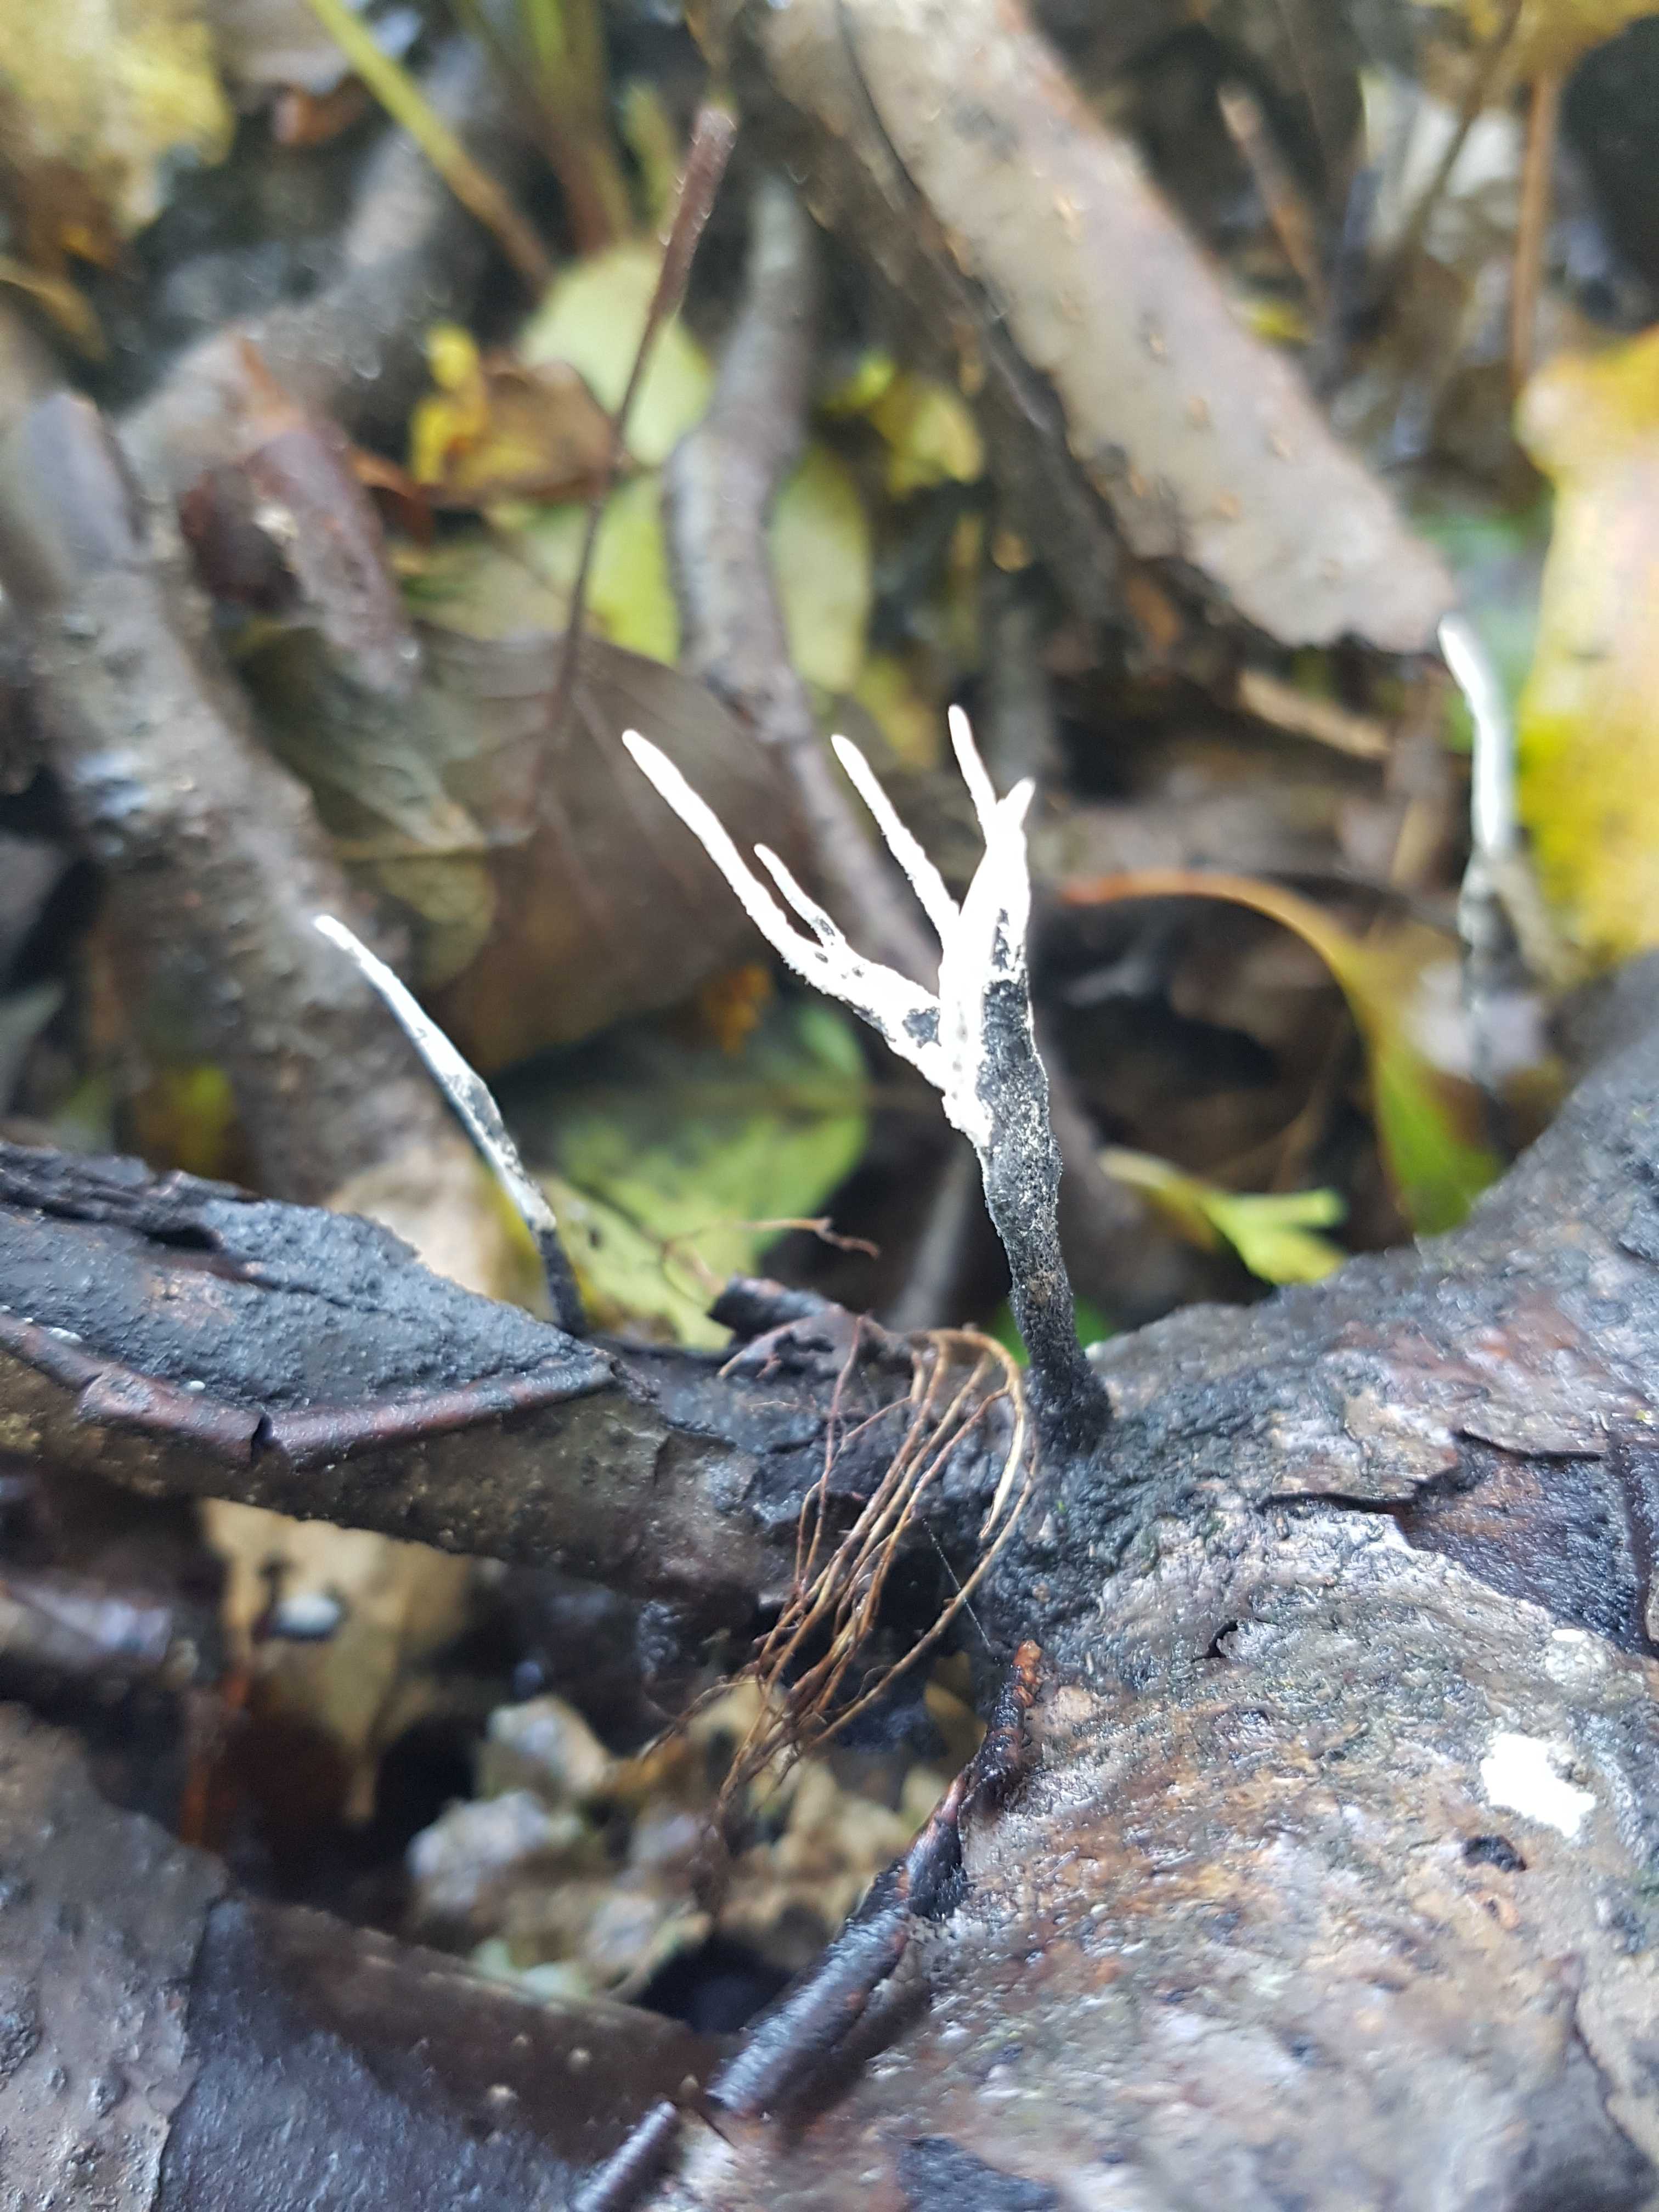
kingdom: Fungi
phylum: Ascomycota
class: Sordariomycetes
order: Xylariales
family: Xylariaceae
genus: Xylaria
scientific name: Xylaria hypoxylon
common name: grenet stødsvamp
